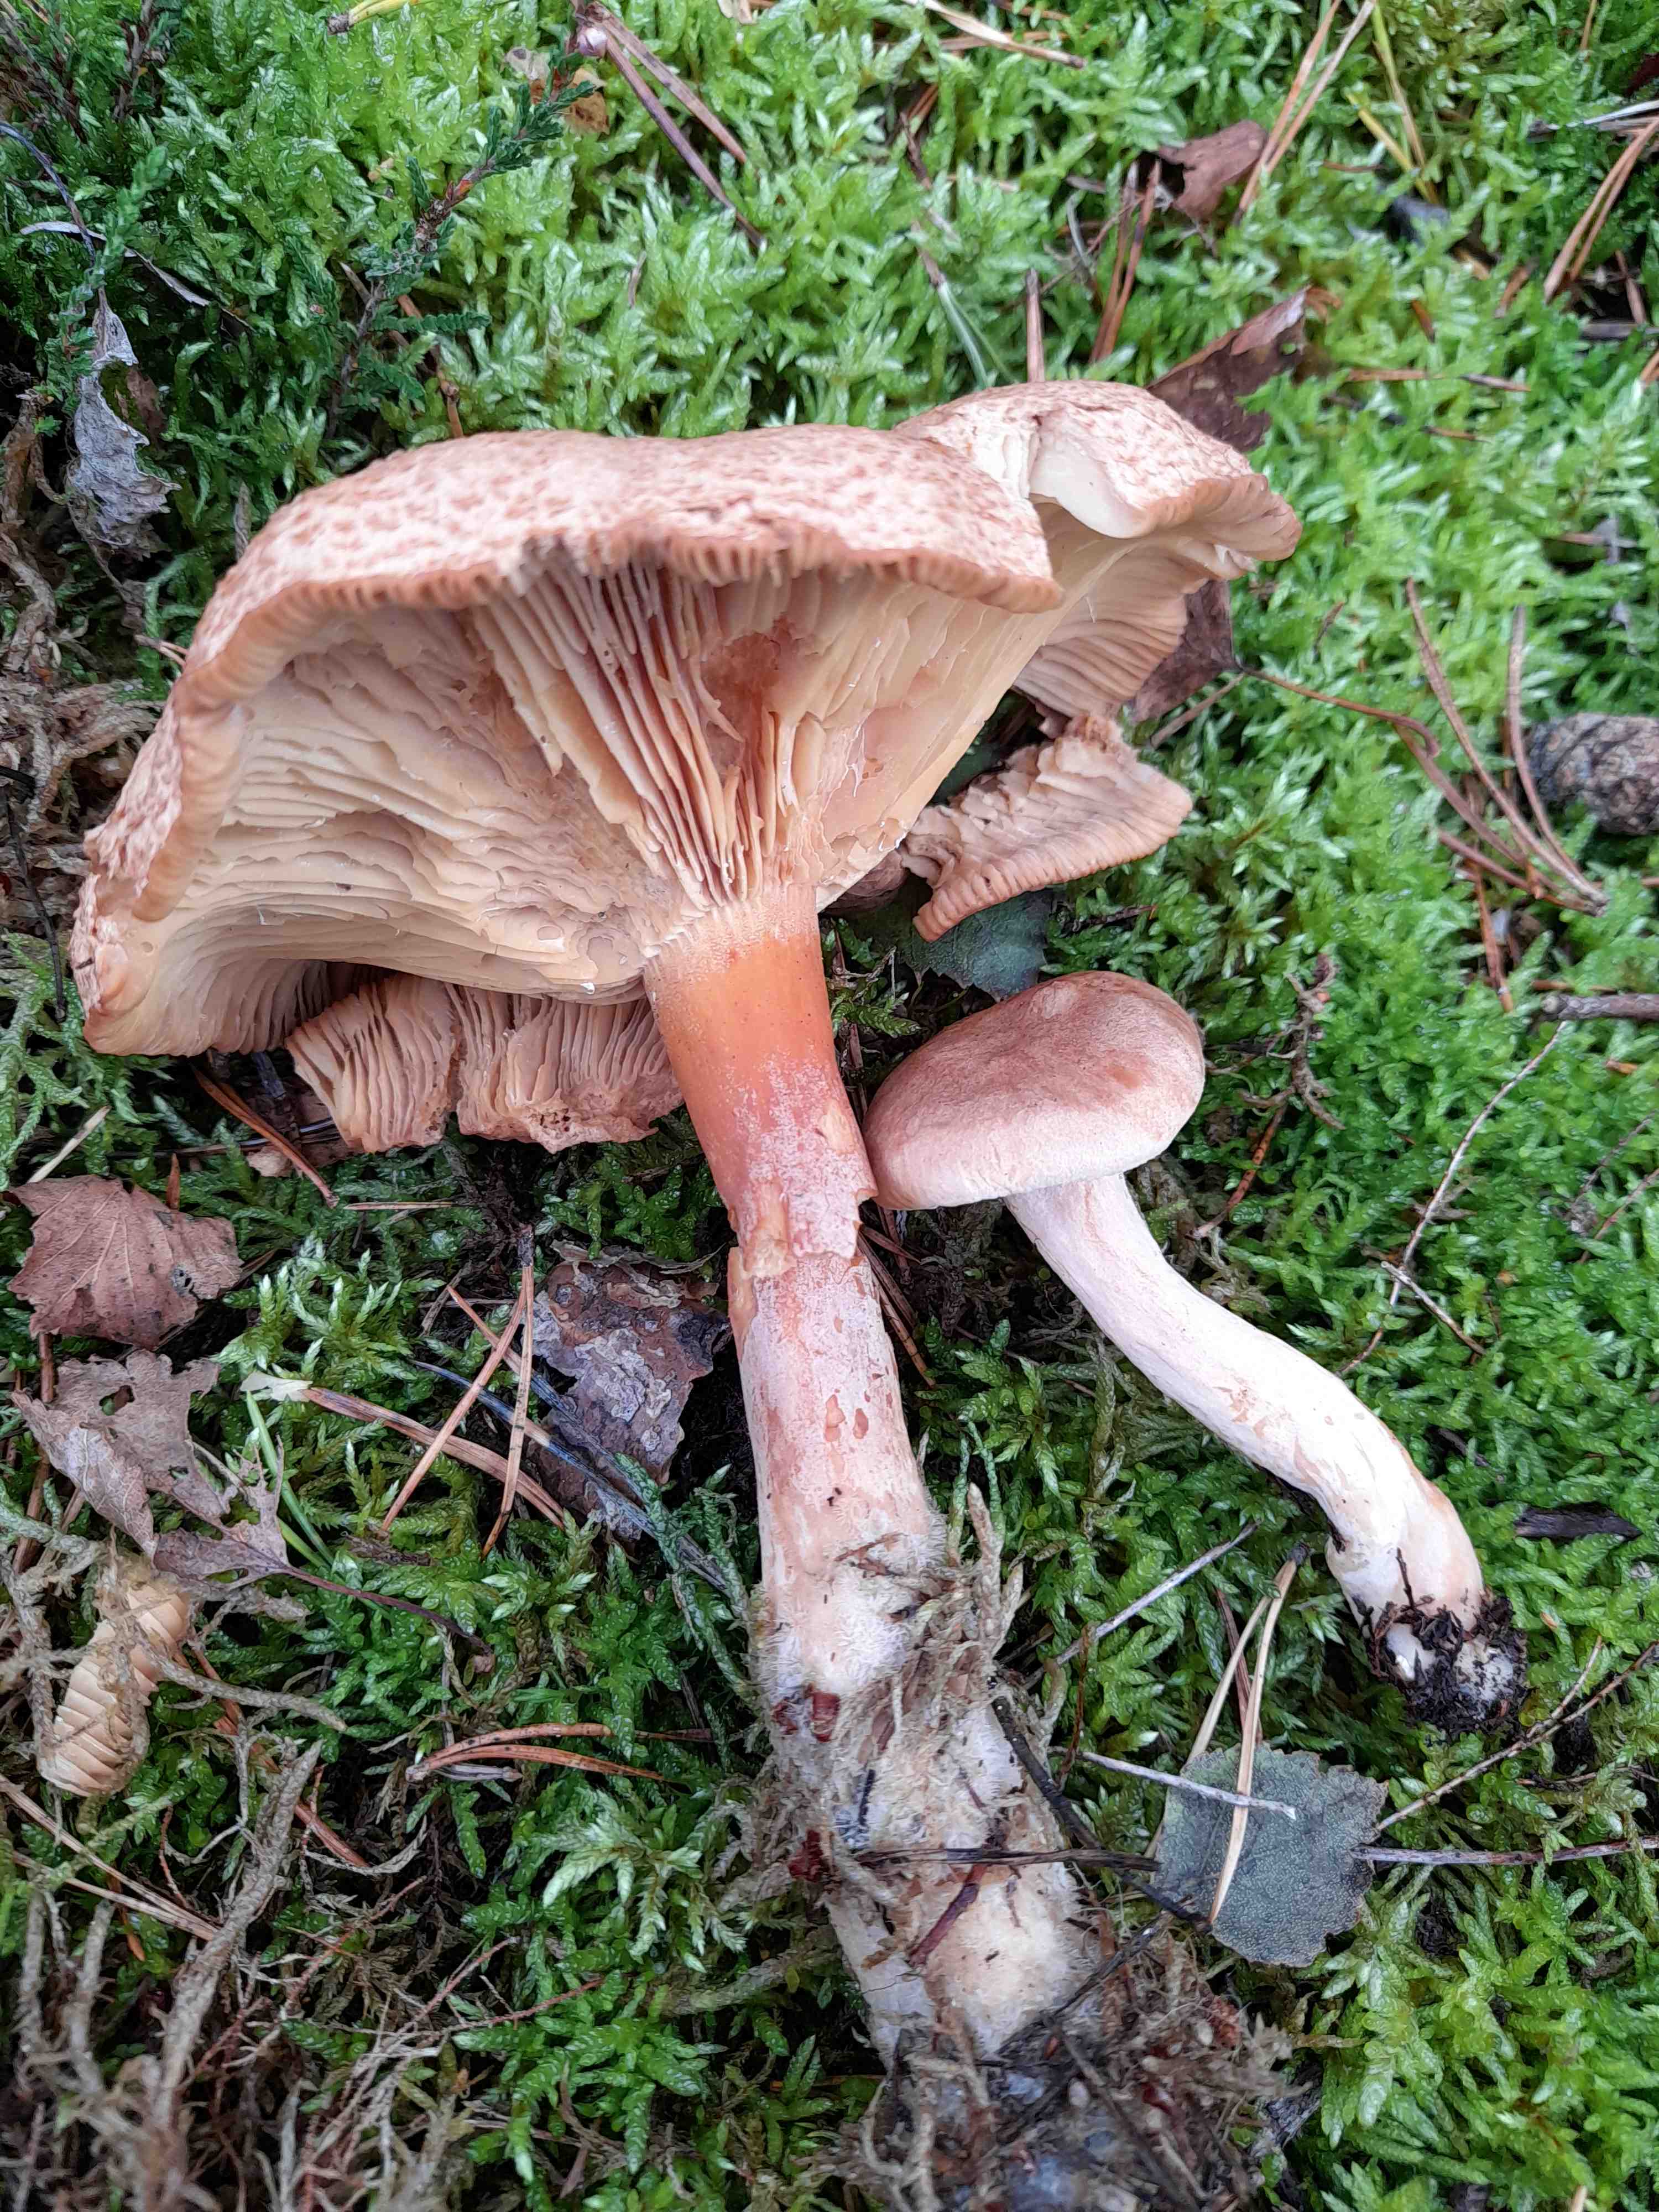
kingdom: Fungi
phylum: Basidiomycota
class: Agaricomycetes
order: Russulales
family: Russulaceae
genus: Lactarius
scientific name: Lactarius helvus
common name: mose-mælkehat
